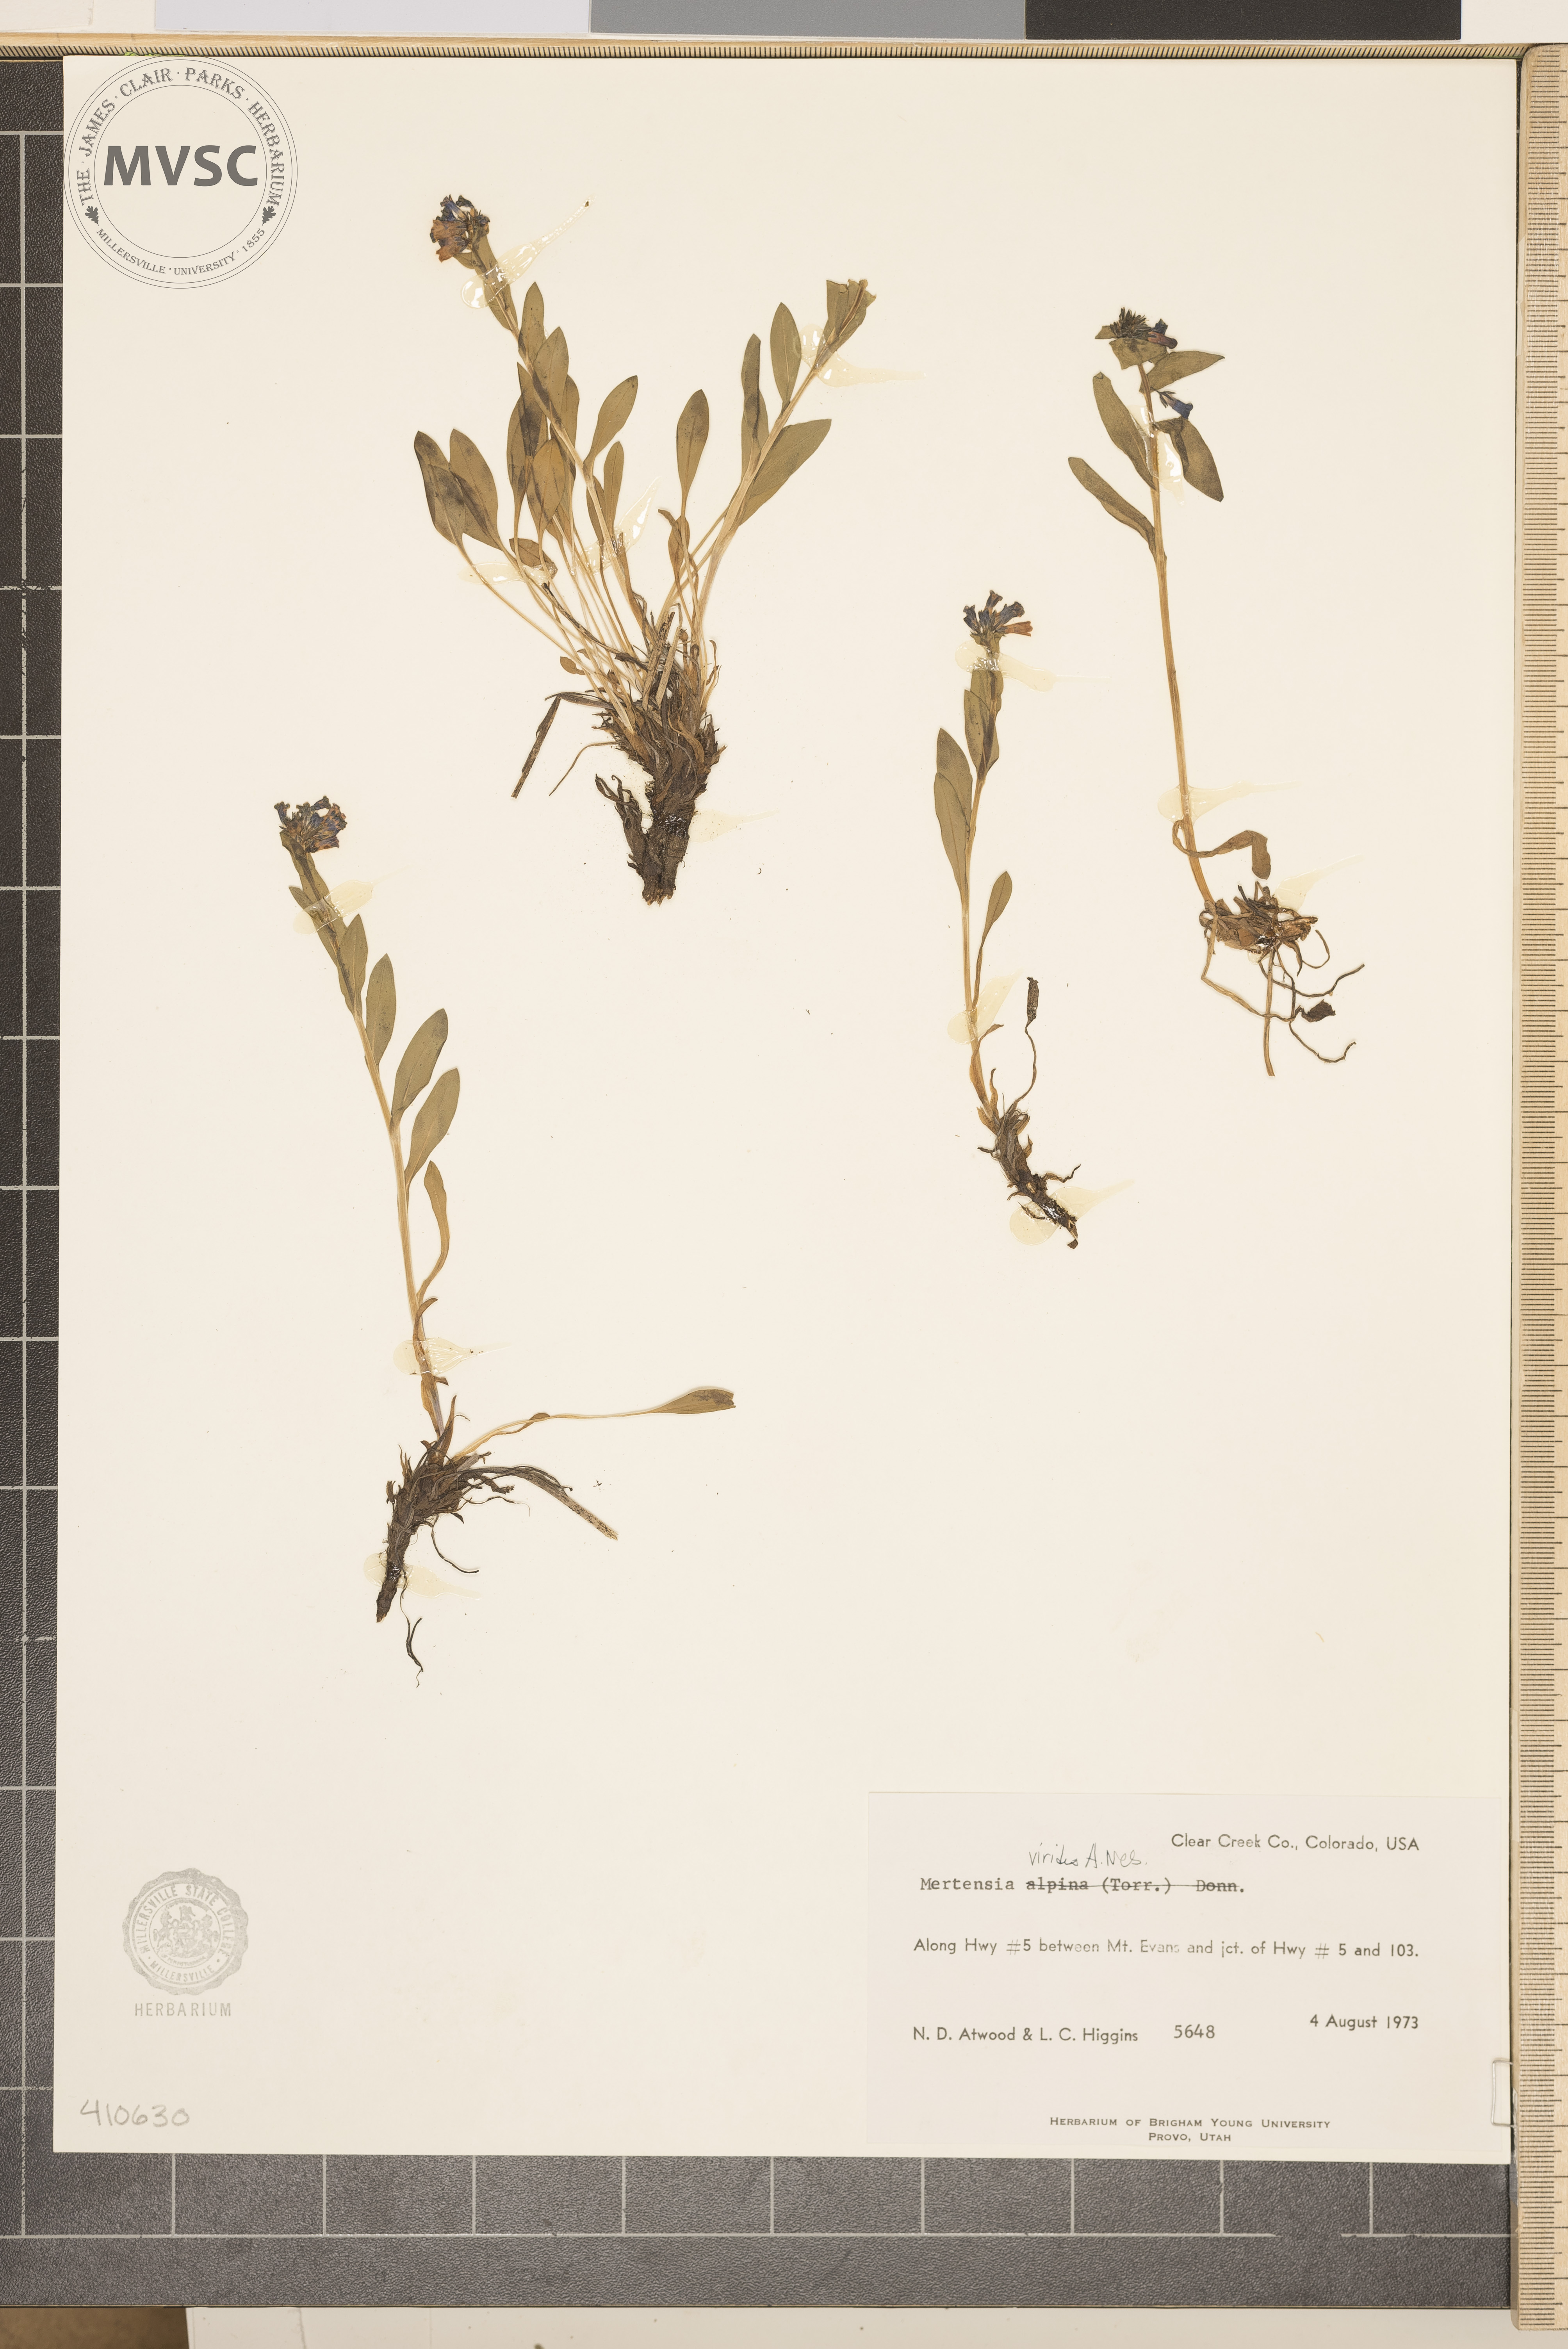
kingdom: Plantae
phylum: Tracheophyta
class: Magnoliopsida
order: Boraginales
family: Boraginaceae
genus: Mertensia
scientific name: Mertensia viridis
